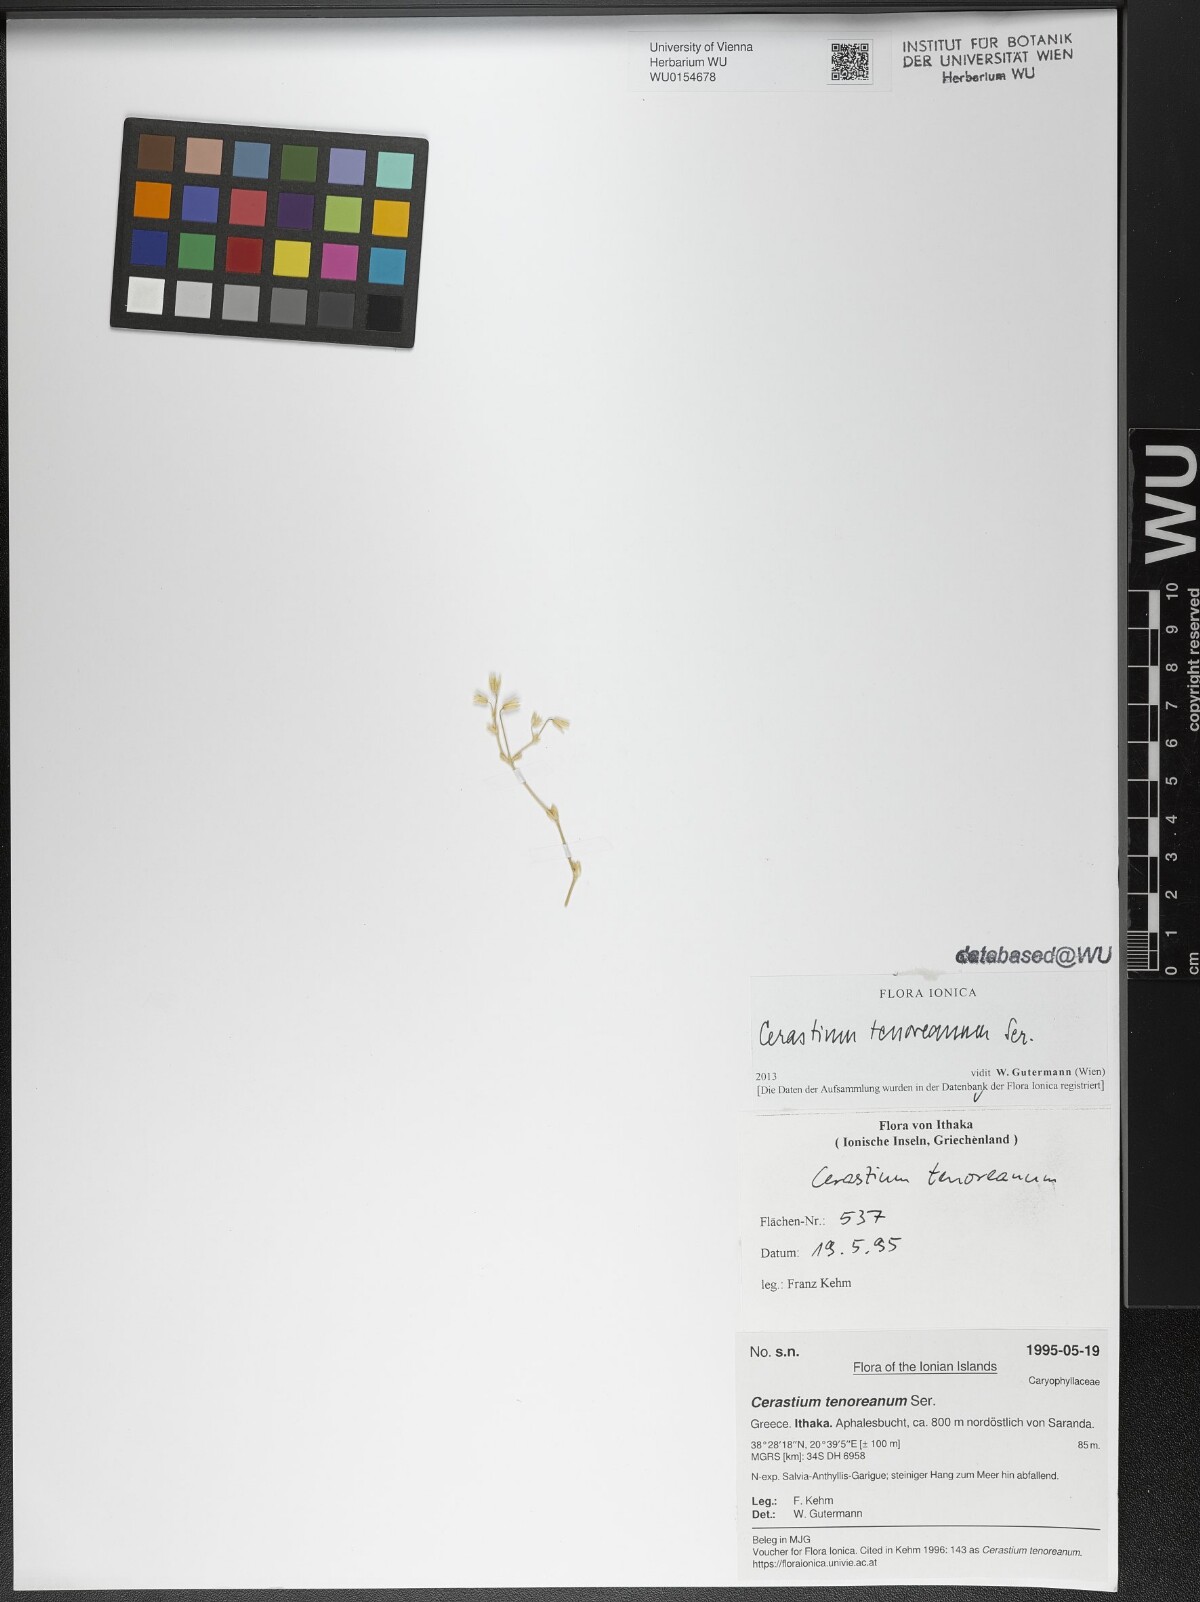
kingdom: Plantae
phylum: Tracheophyta
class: Magnoliopsida
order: Caryophyllales
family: Caryophyllaceae
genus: Cerastium
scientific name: Cerastium tenoreanum
